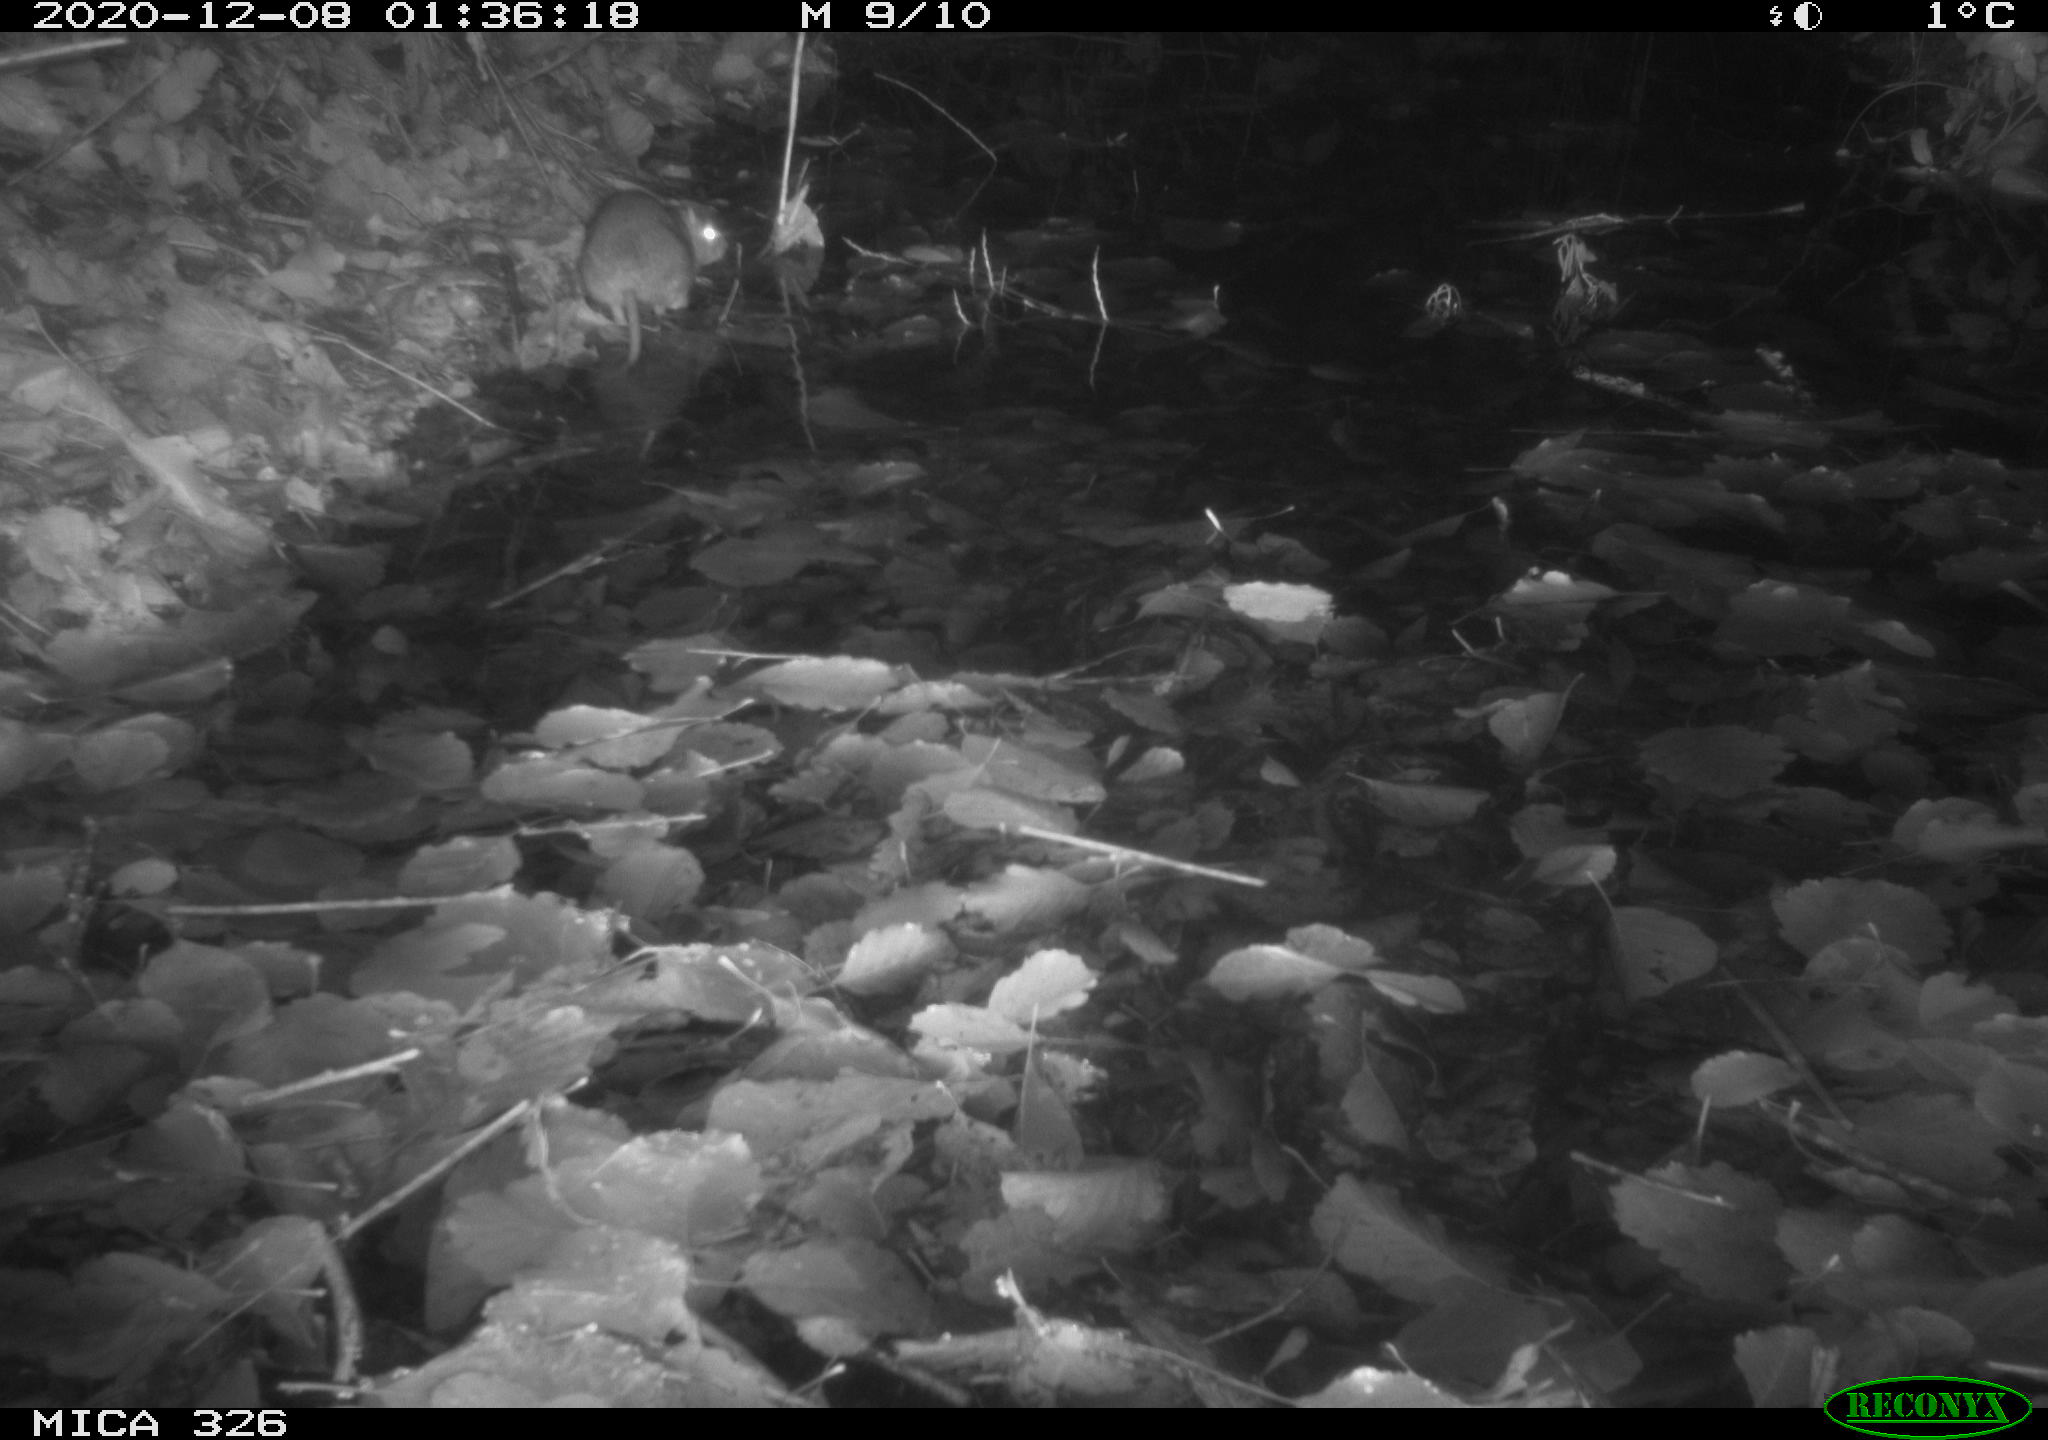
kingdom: Animalia
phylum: Chordata
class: Mammalia
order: Rodentia
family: Muridae
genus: Rattus
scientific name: Rattus norvegicus
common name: Brown rat
